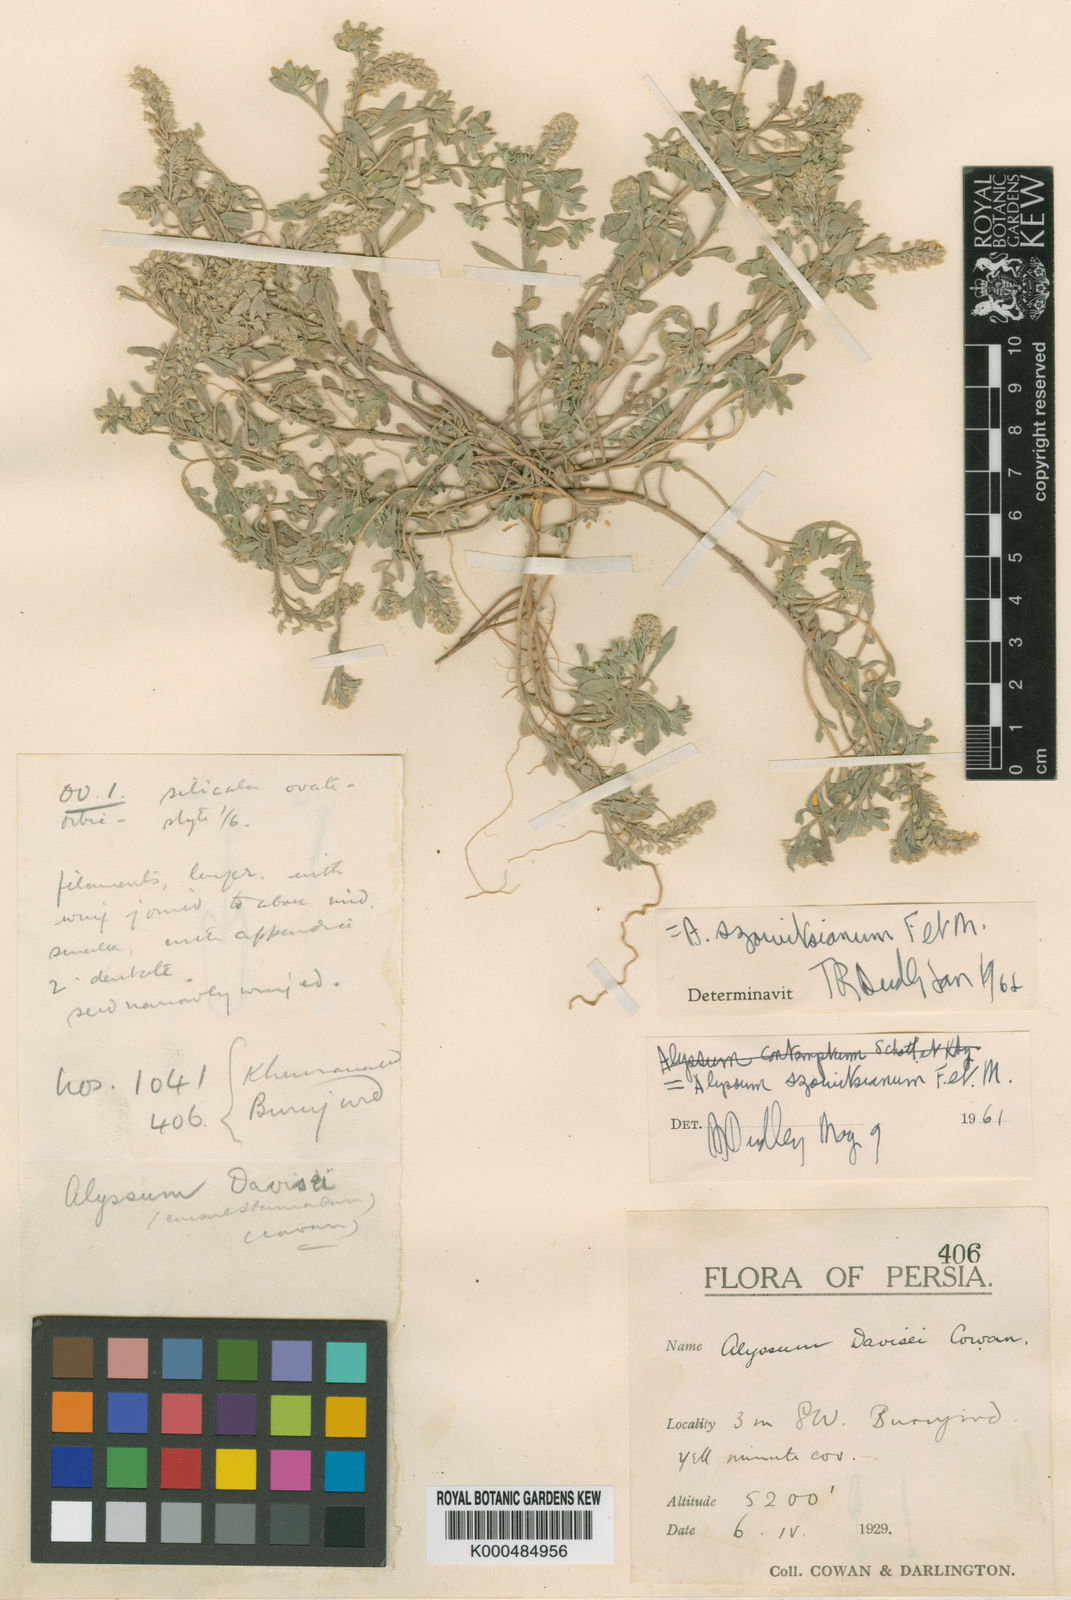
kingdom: Plantae
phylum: Tracheophyta
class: Magnoliopsida
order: Brassicales
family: Brassicaceae
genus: Alyssum
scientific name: Alyssum szovitsianum
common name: Szowits' madwort
